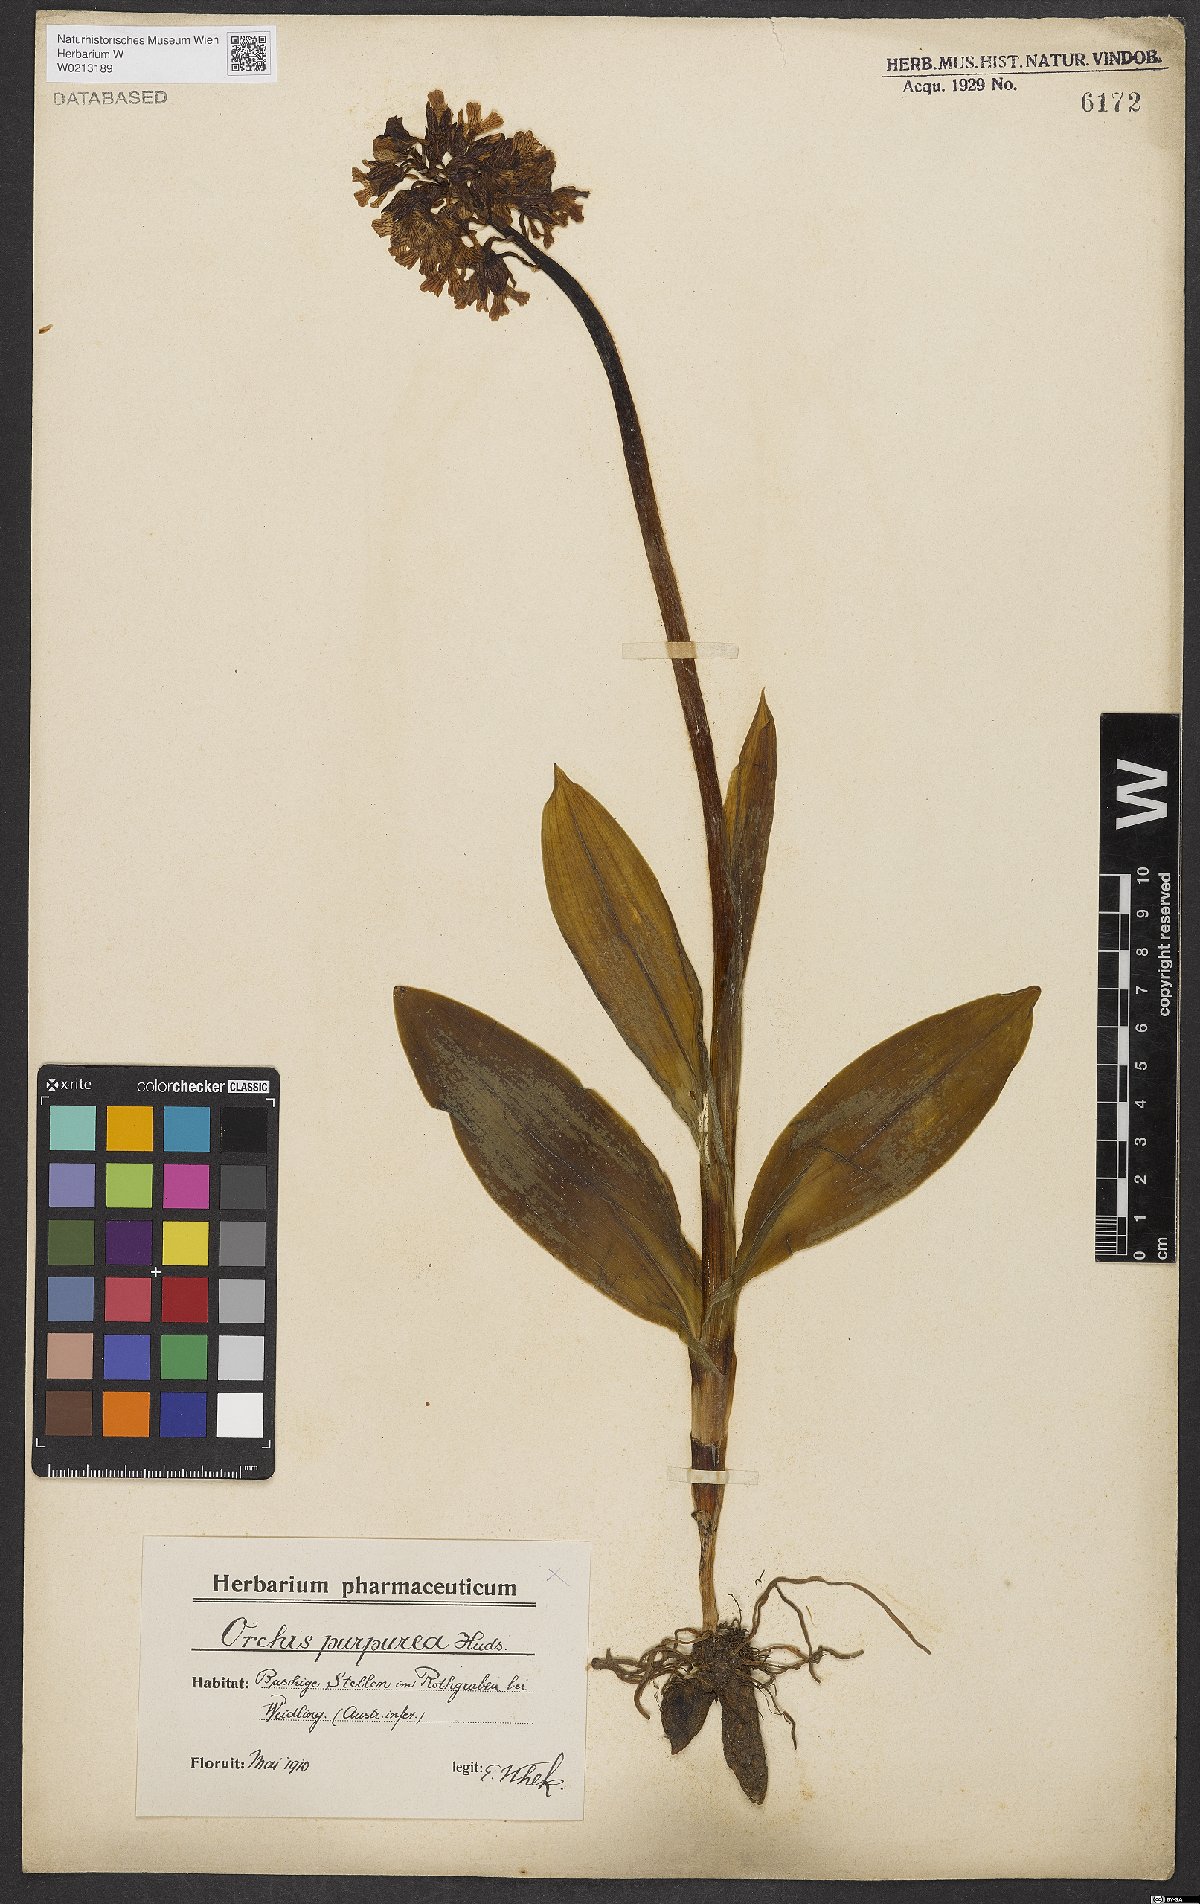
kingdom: Plantae
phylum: Tracheophyta
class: Liliopsida
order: Asparagales
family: Orchidaceae
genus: Orchis
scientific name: Orchis purpurea
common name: Lady orchid
